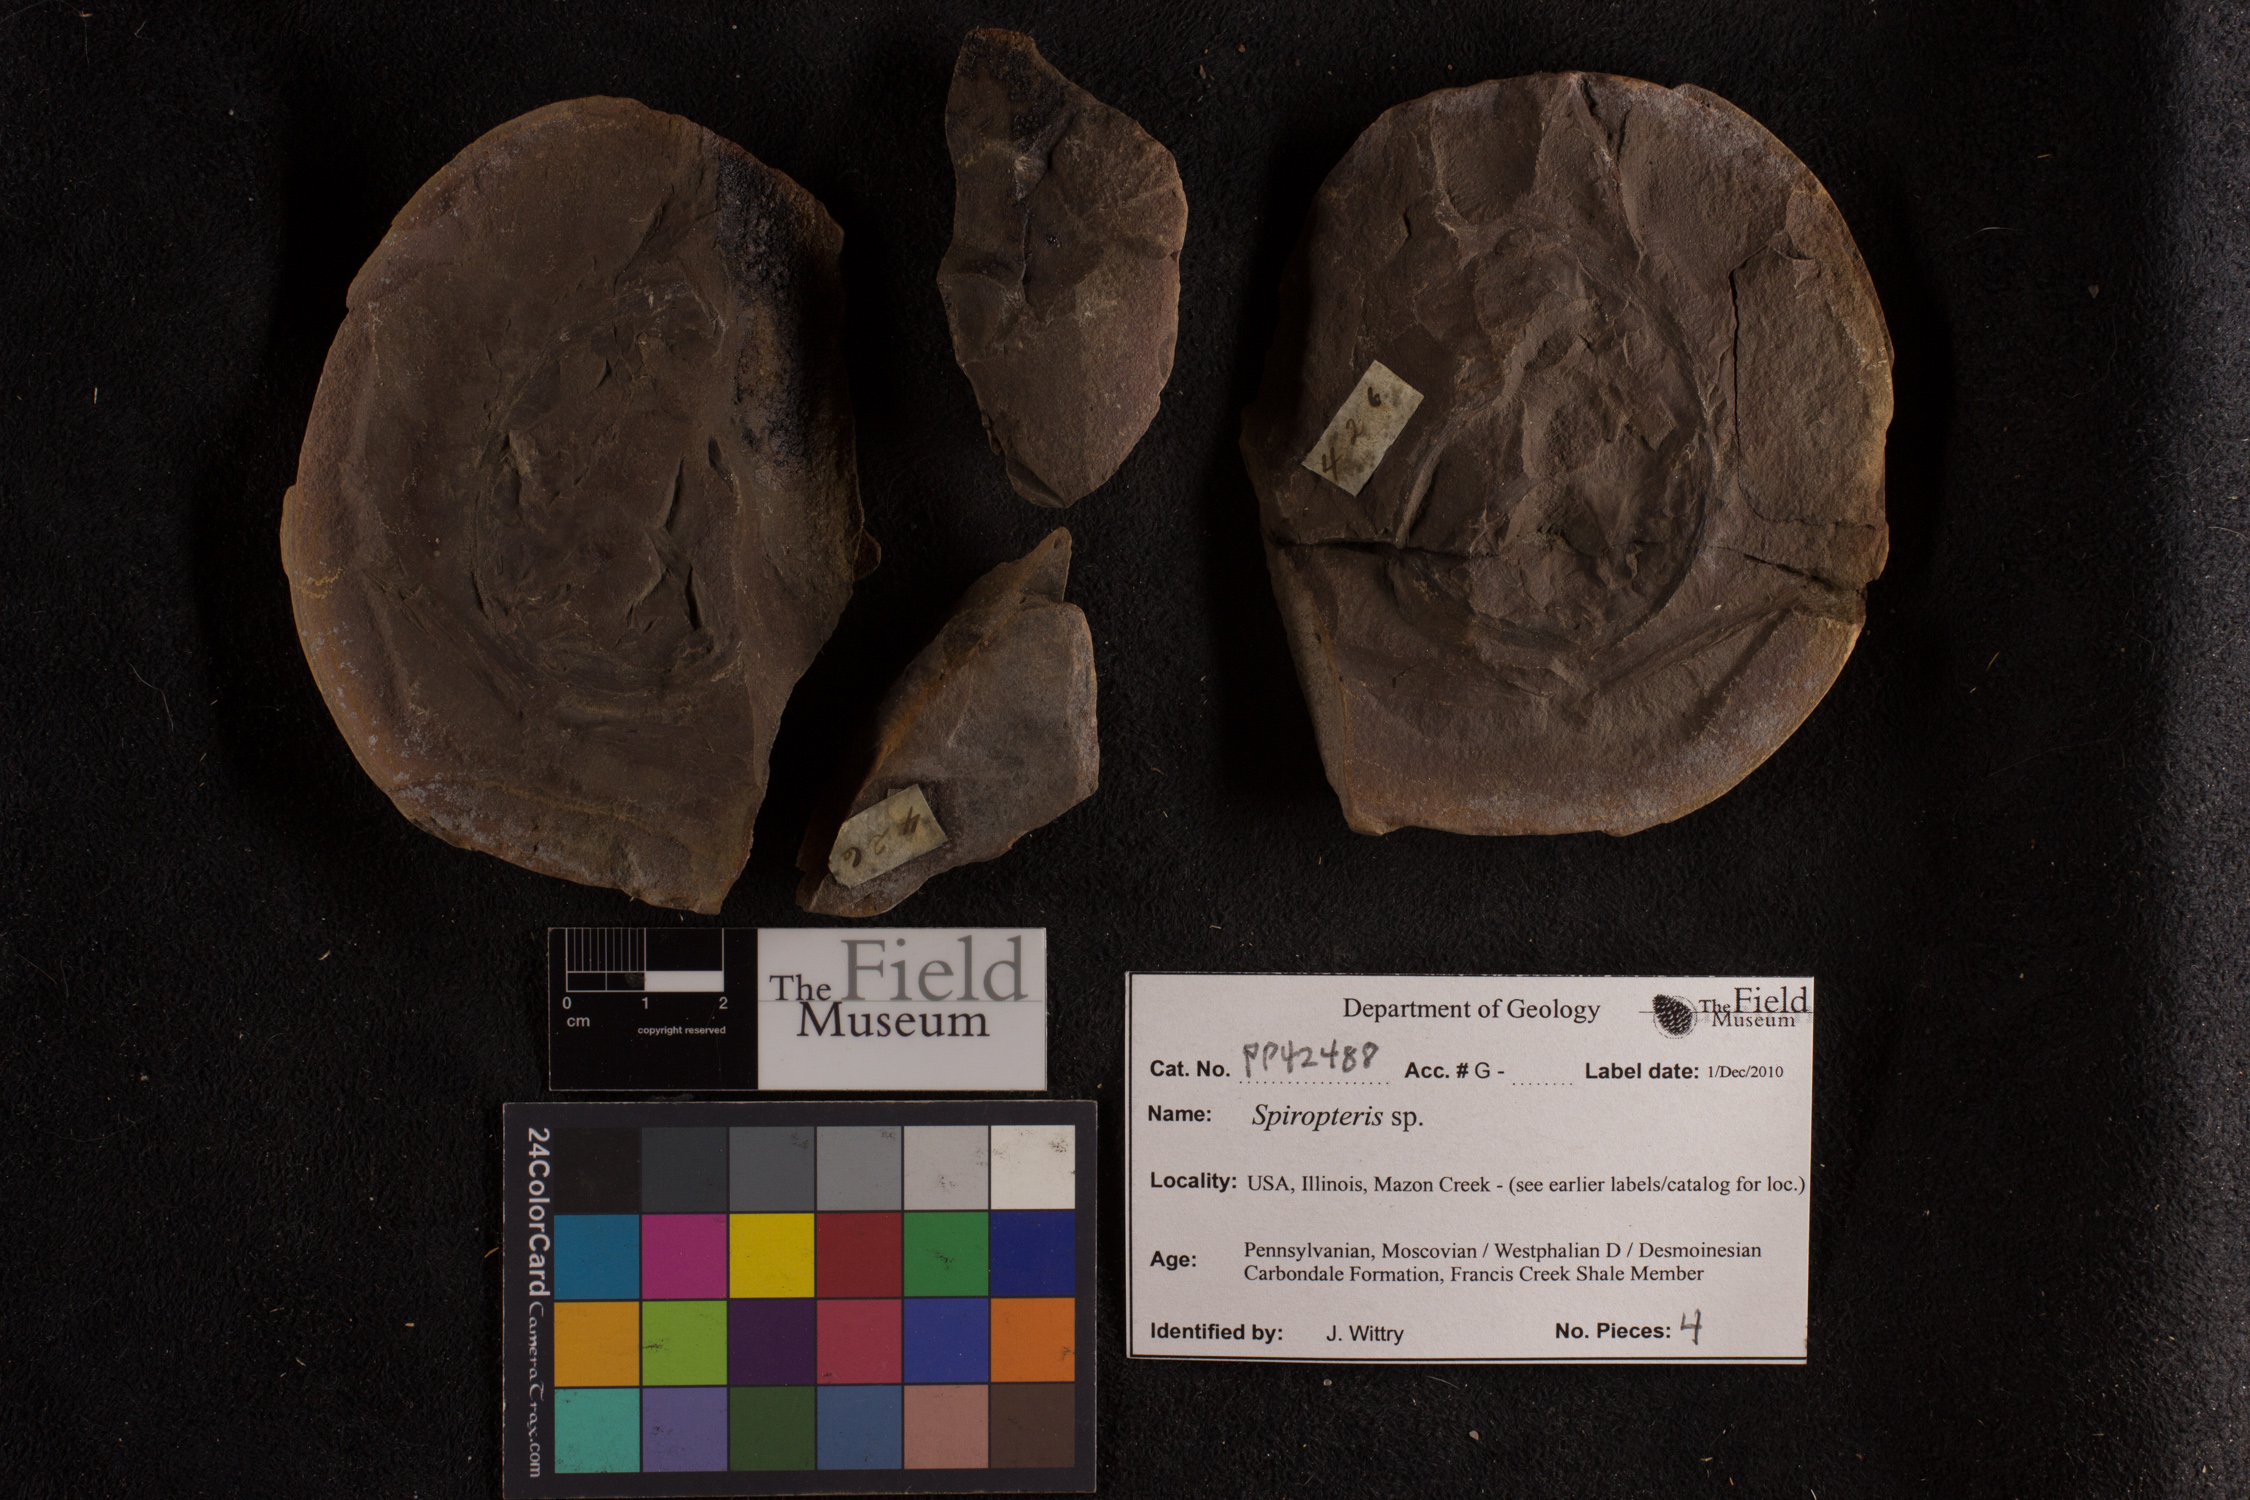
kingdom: Plantae
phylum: Tracheophyta
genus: Spiropteris
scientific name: Spiropteris
